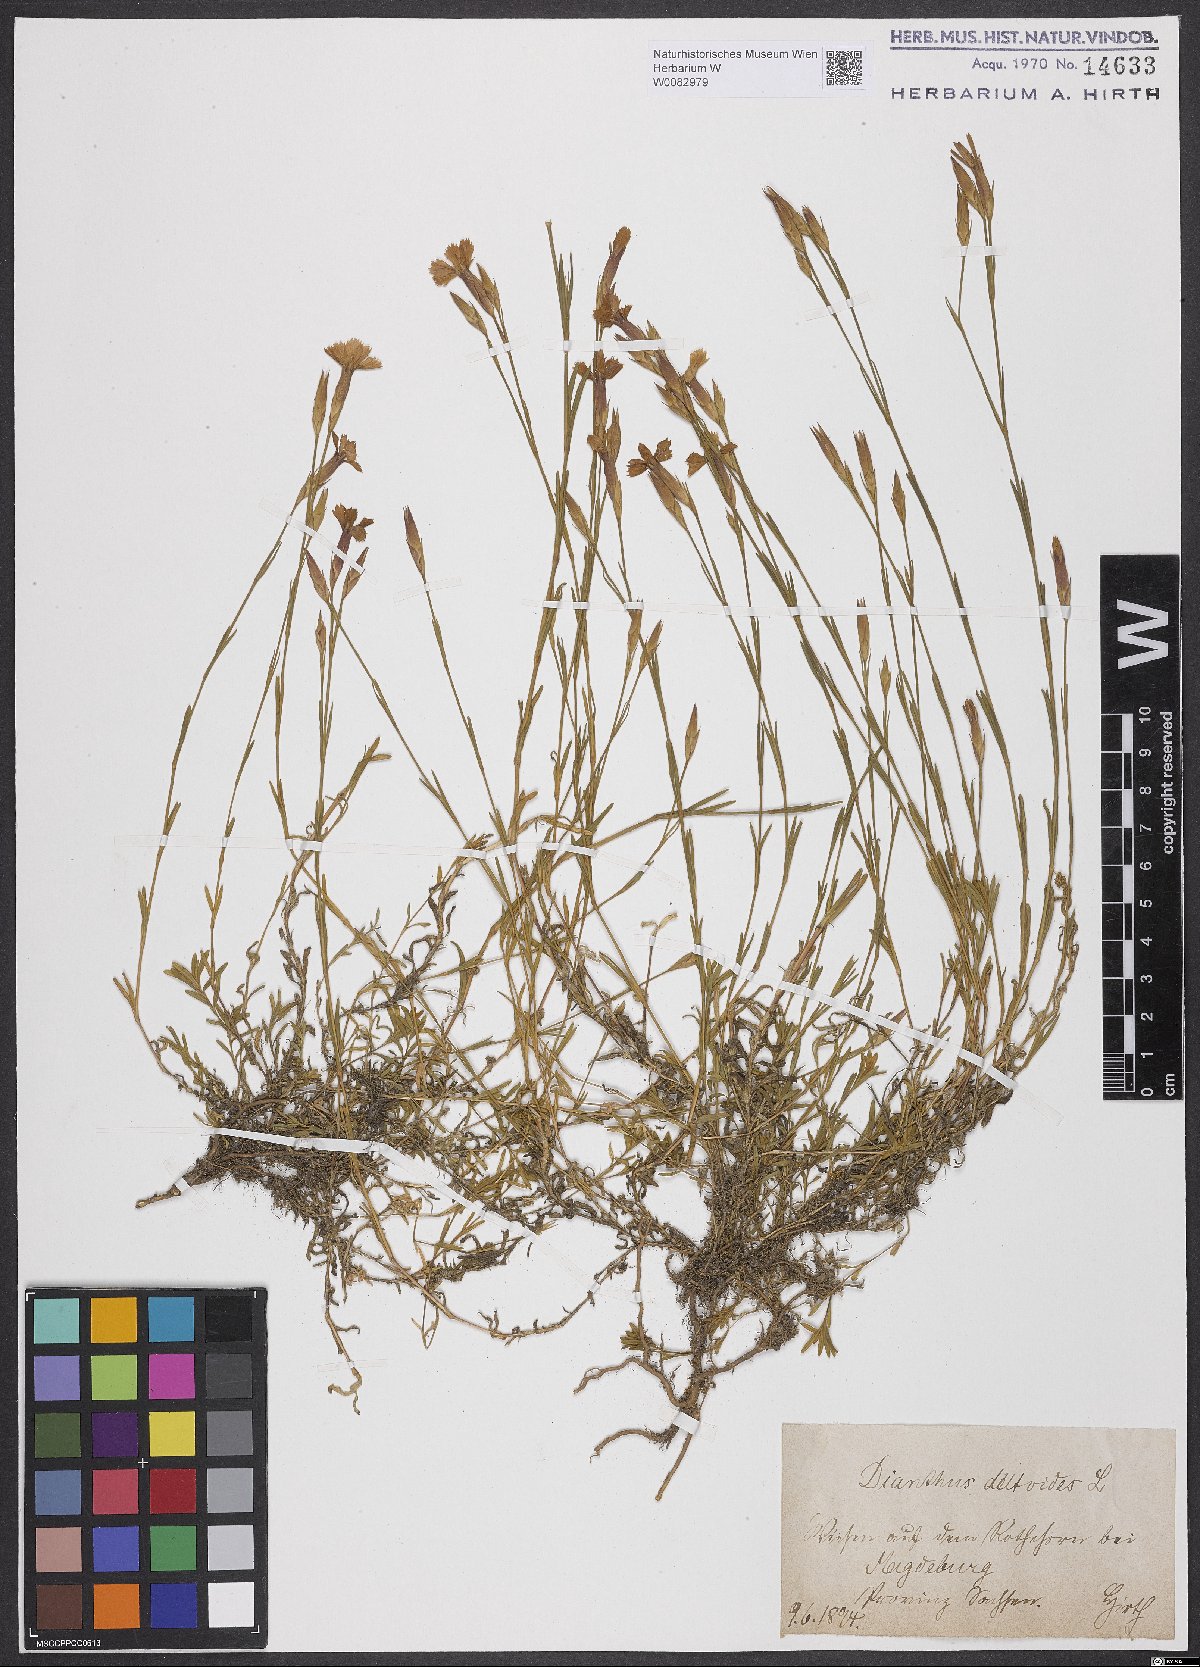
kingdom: Plantae
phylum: Tracheophyta
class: Magnoliopsida
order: Caryophyllales
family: Caryophyllaceae
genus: Dianthus
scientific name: Dianthus deltoides
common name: Maiden pink
